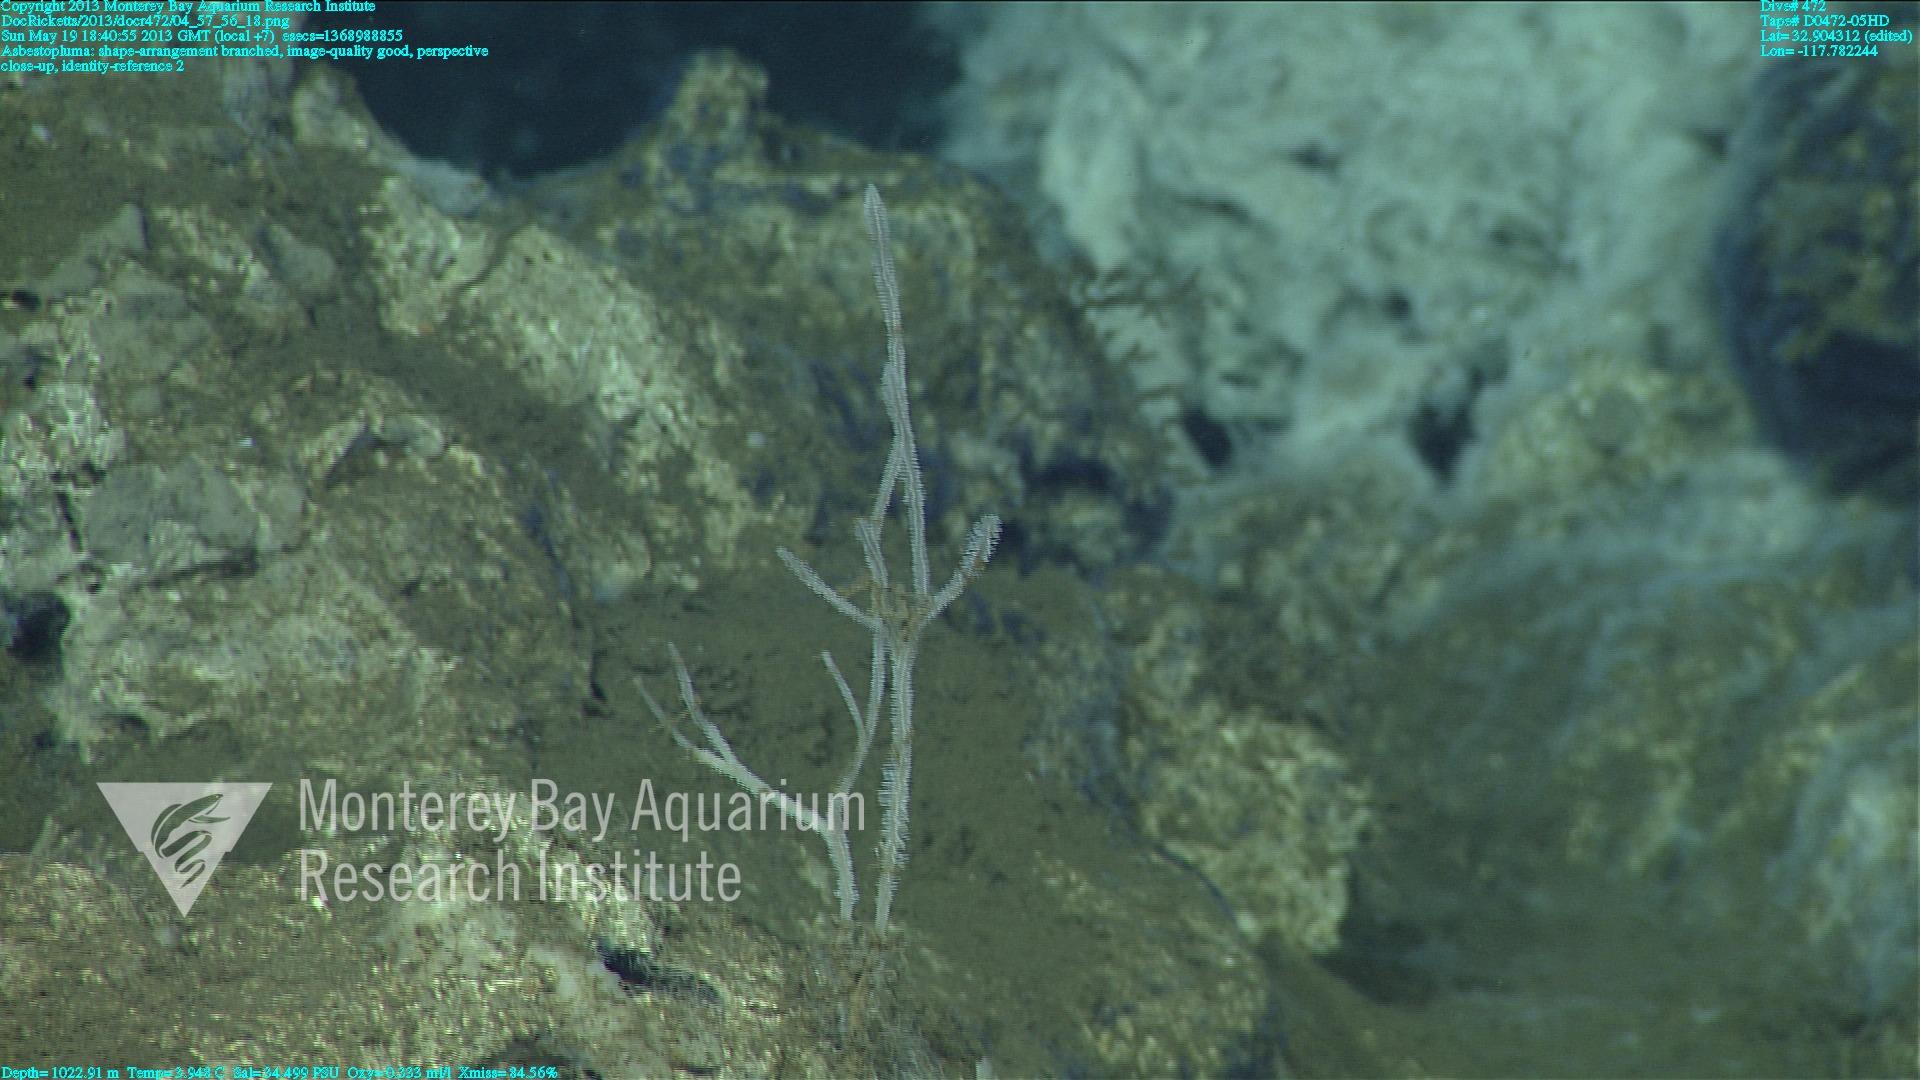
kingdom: Animalia
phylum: Porifera
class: Demospongiae
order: Poecilosclerida
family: Cladorhizidae
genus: Asbestopluma
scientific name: Asbestopluma
